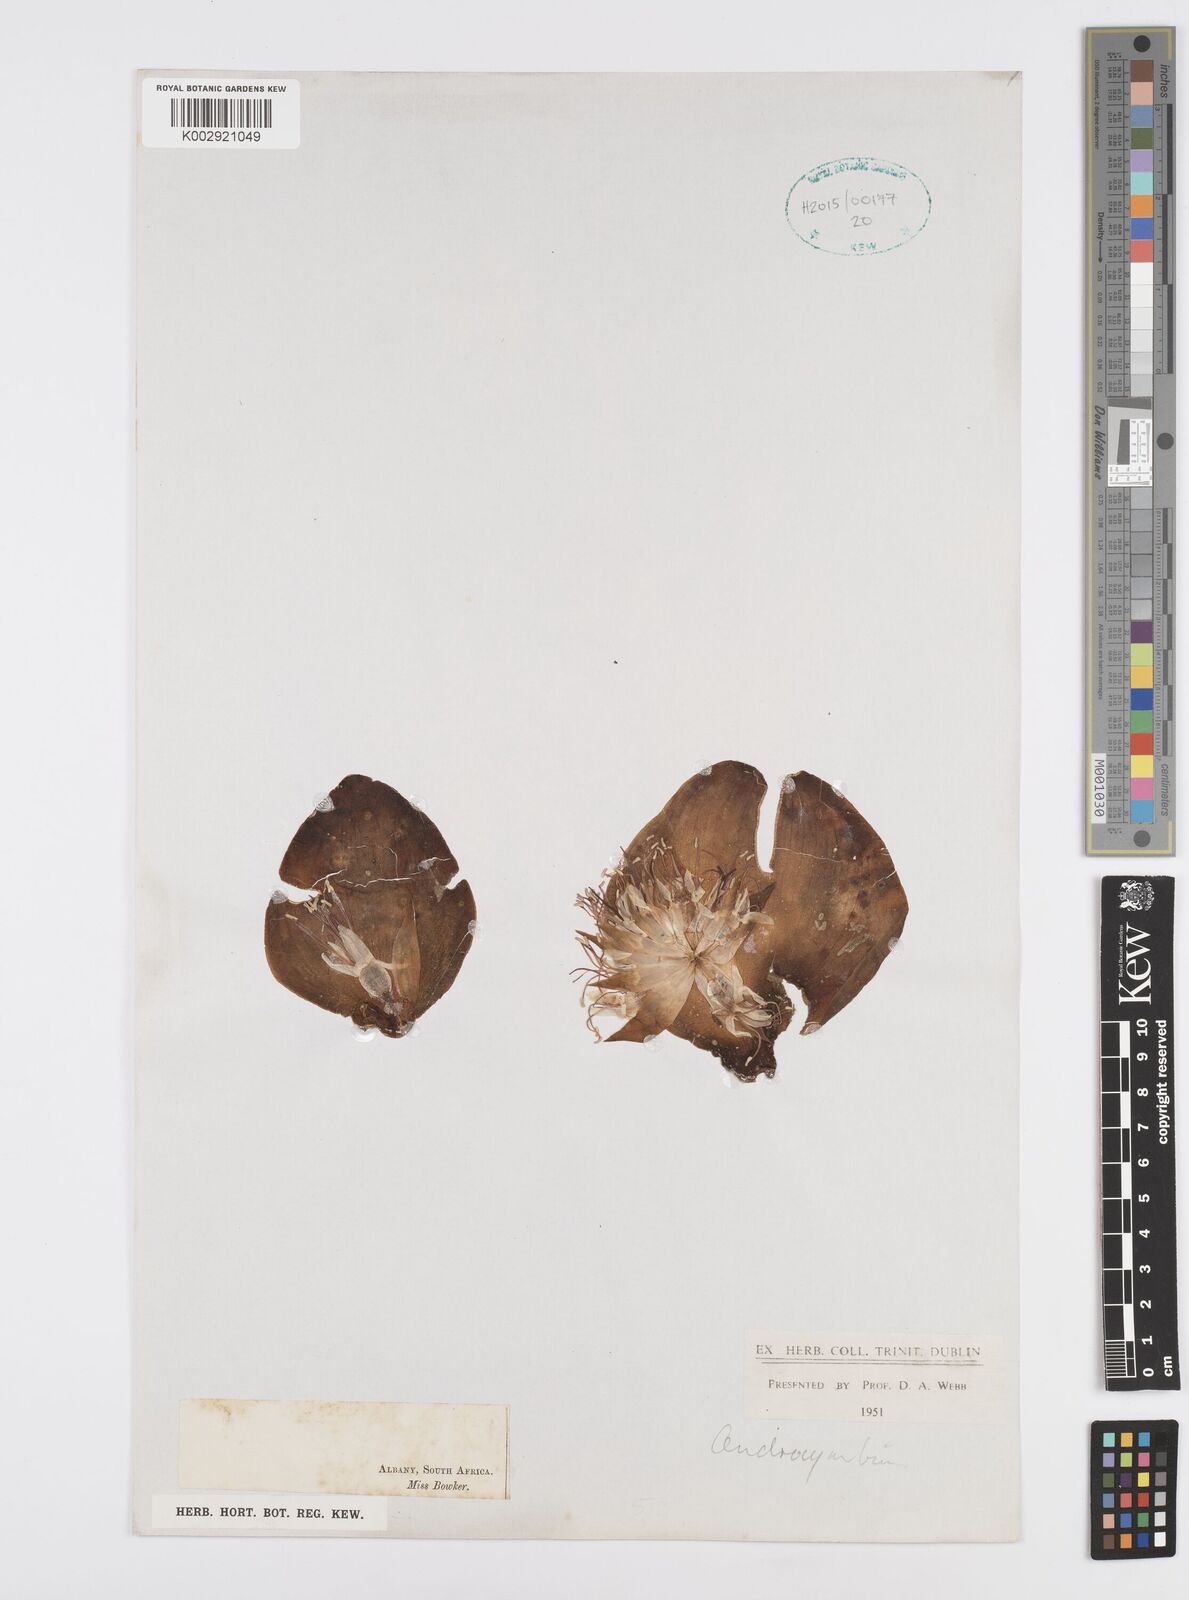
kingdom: Plantae
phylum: Tracheophyta
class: Liliopsida
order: Asparagales
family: Asparagaceae
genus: Massonia
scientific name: Massonia
